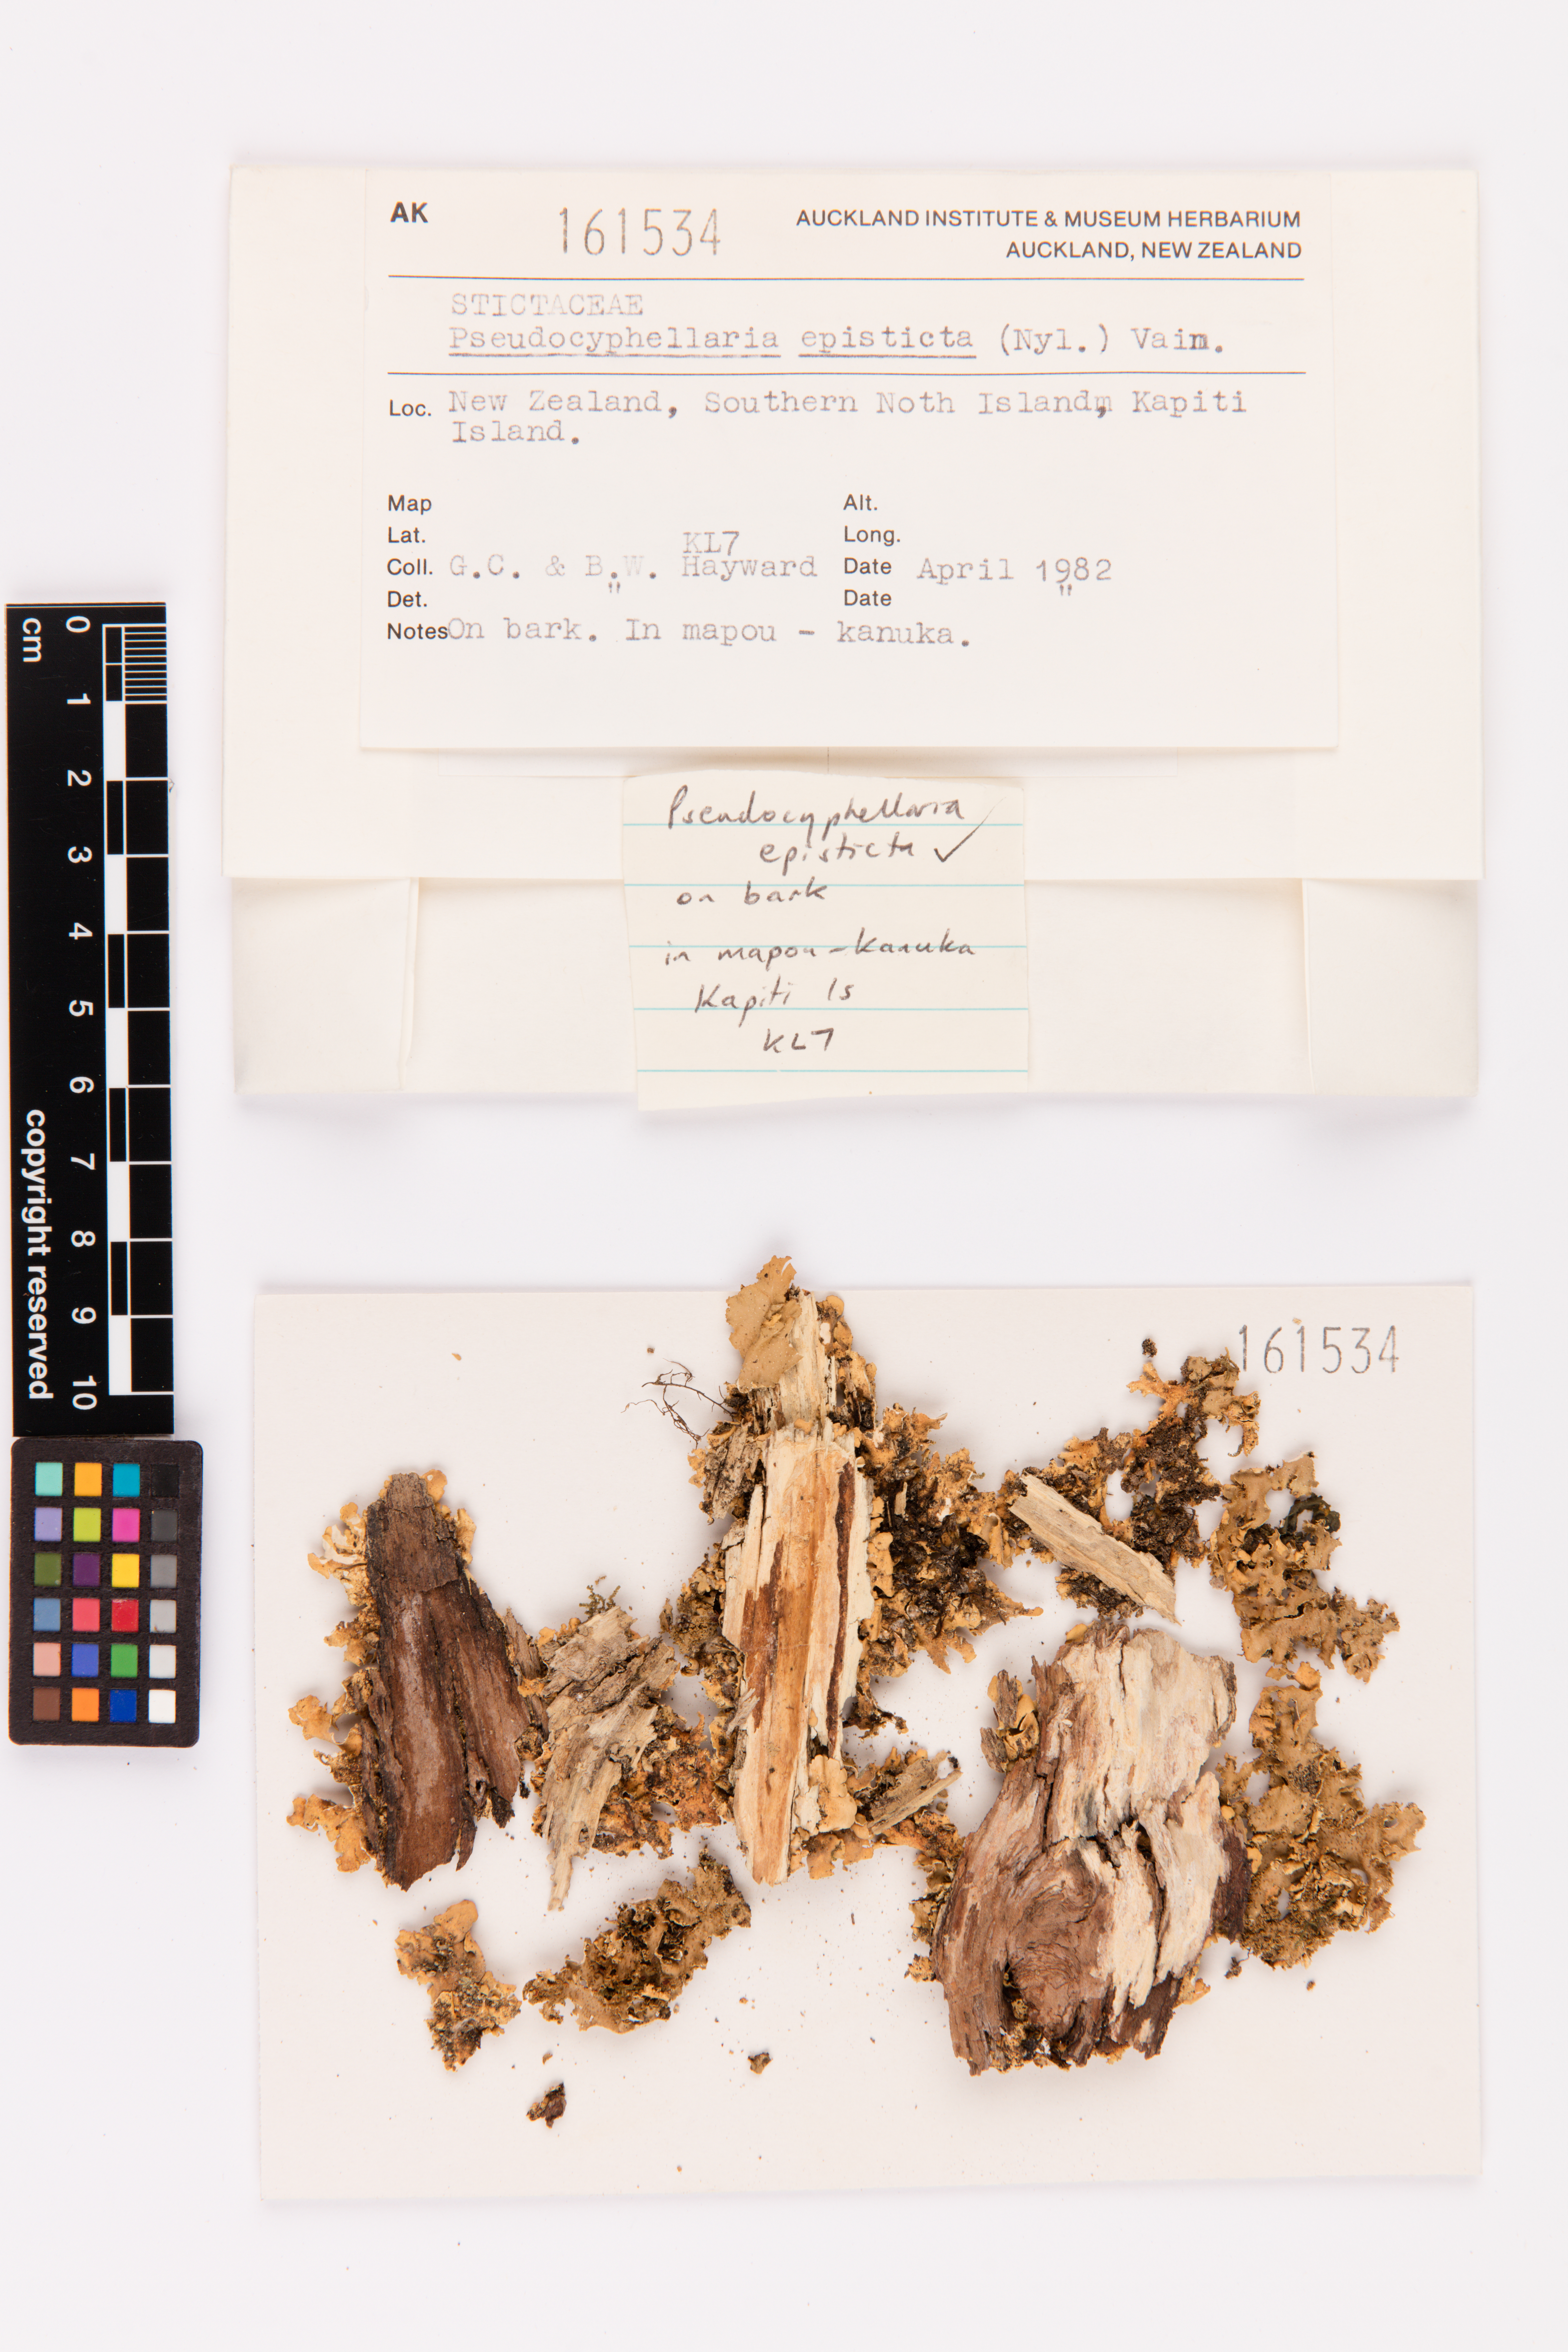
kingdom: Fungi
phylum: Ascomycota
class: Lecanoromycetes
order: Peltigerales
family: Lobariaceae
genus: Pseudocyphellaria
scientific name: Pseudocyphellaria episticta
